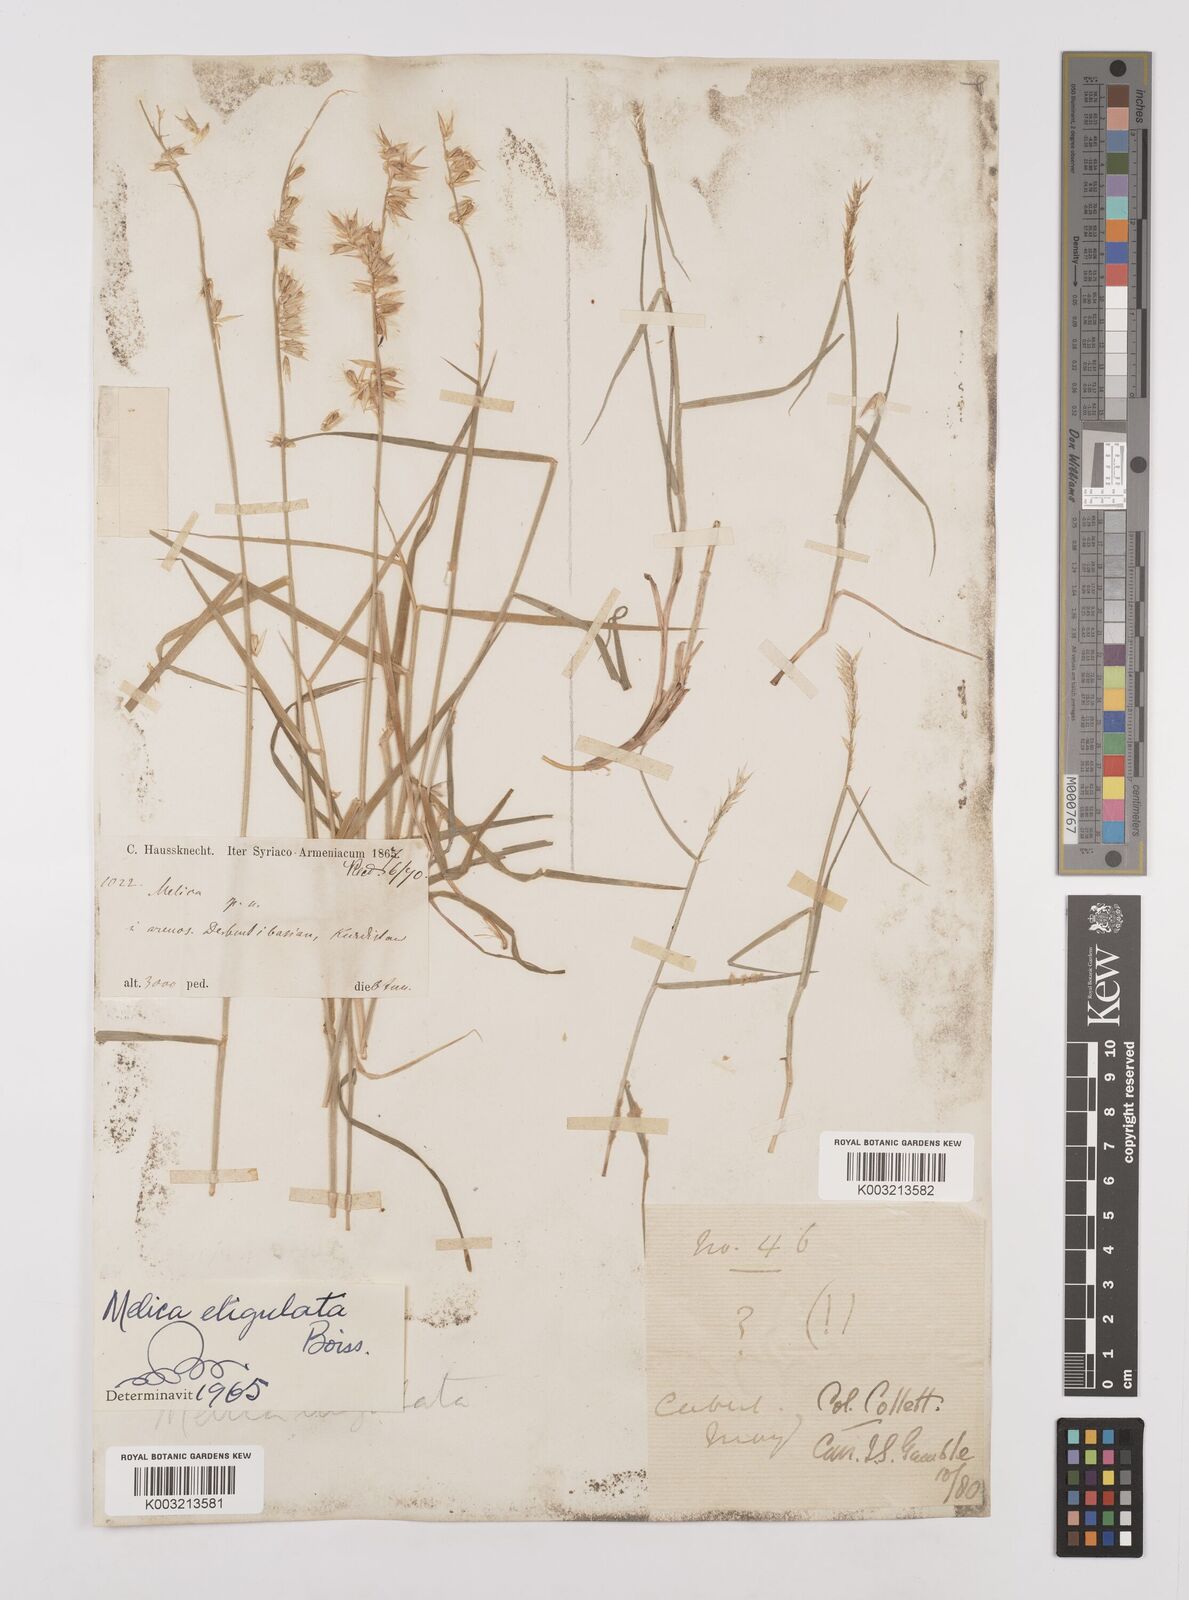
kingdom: Plantae
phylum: Tracheophyta
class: Liliopsida
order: Poales
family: Poaceae
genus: Melica
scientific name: Melica eligulata
